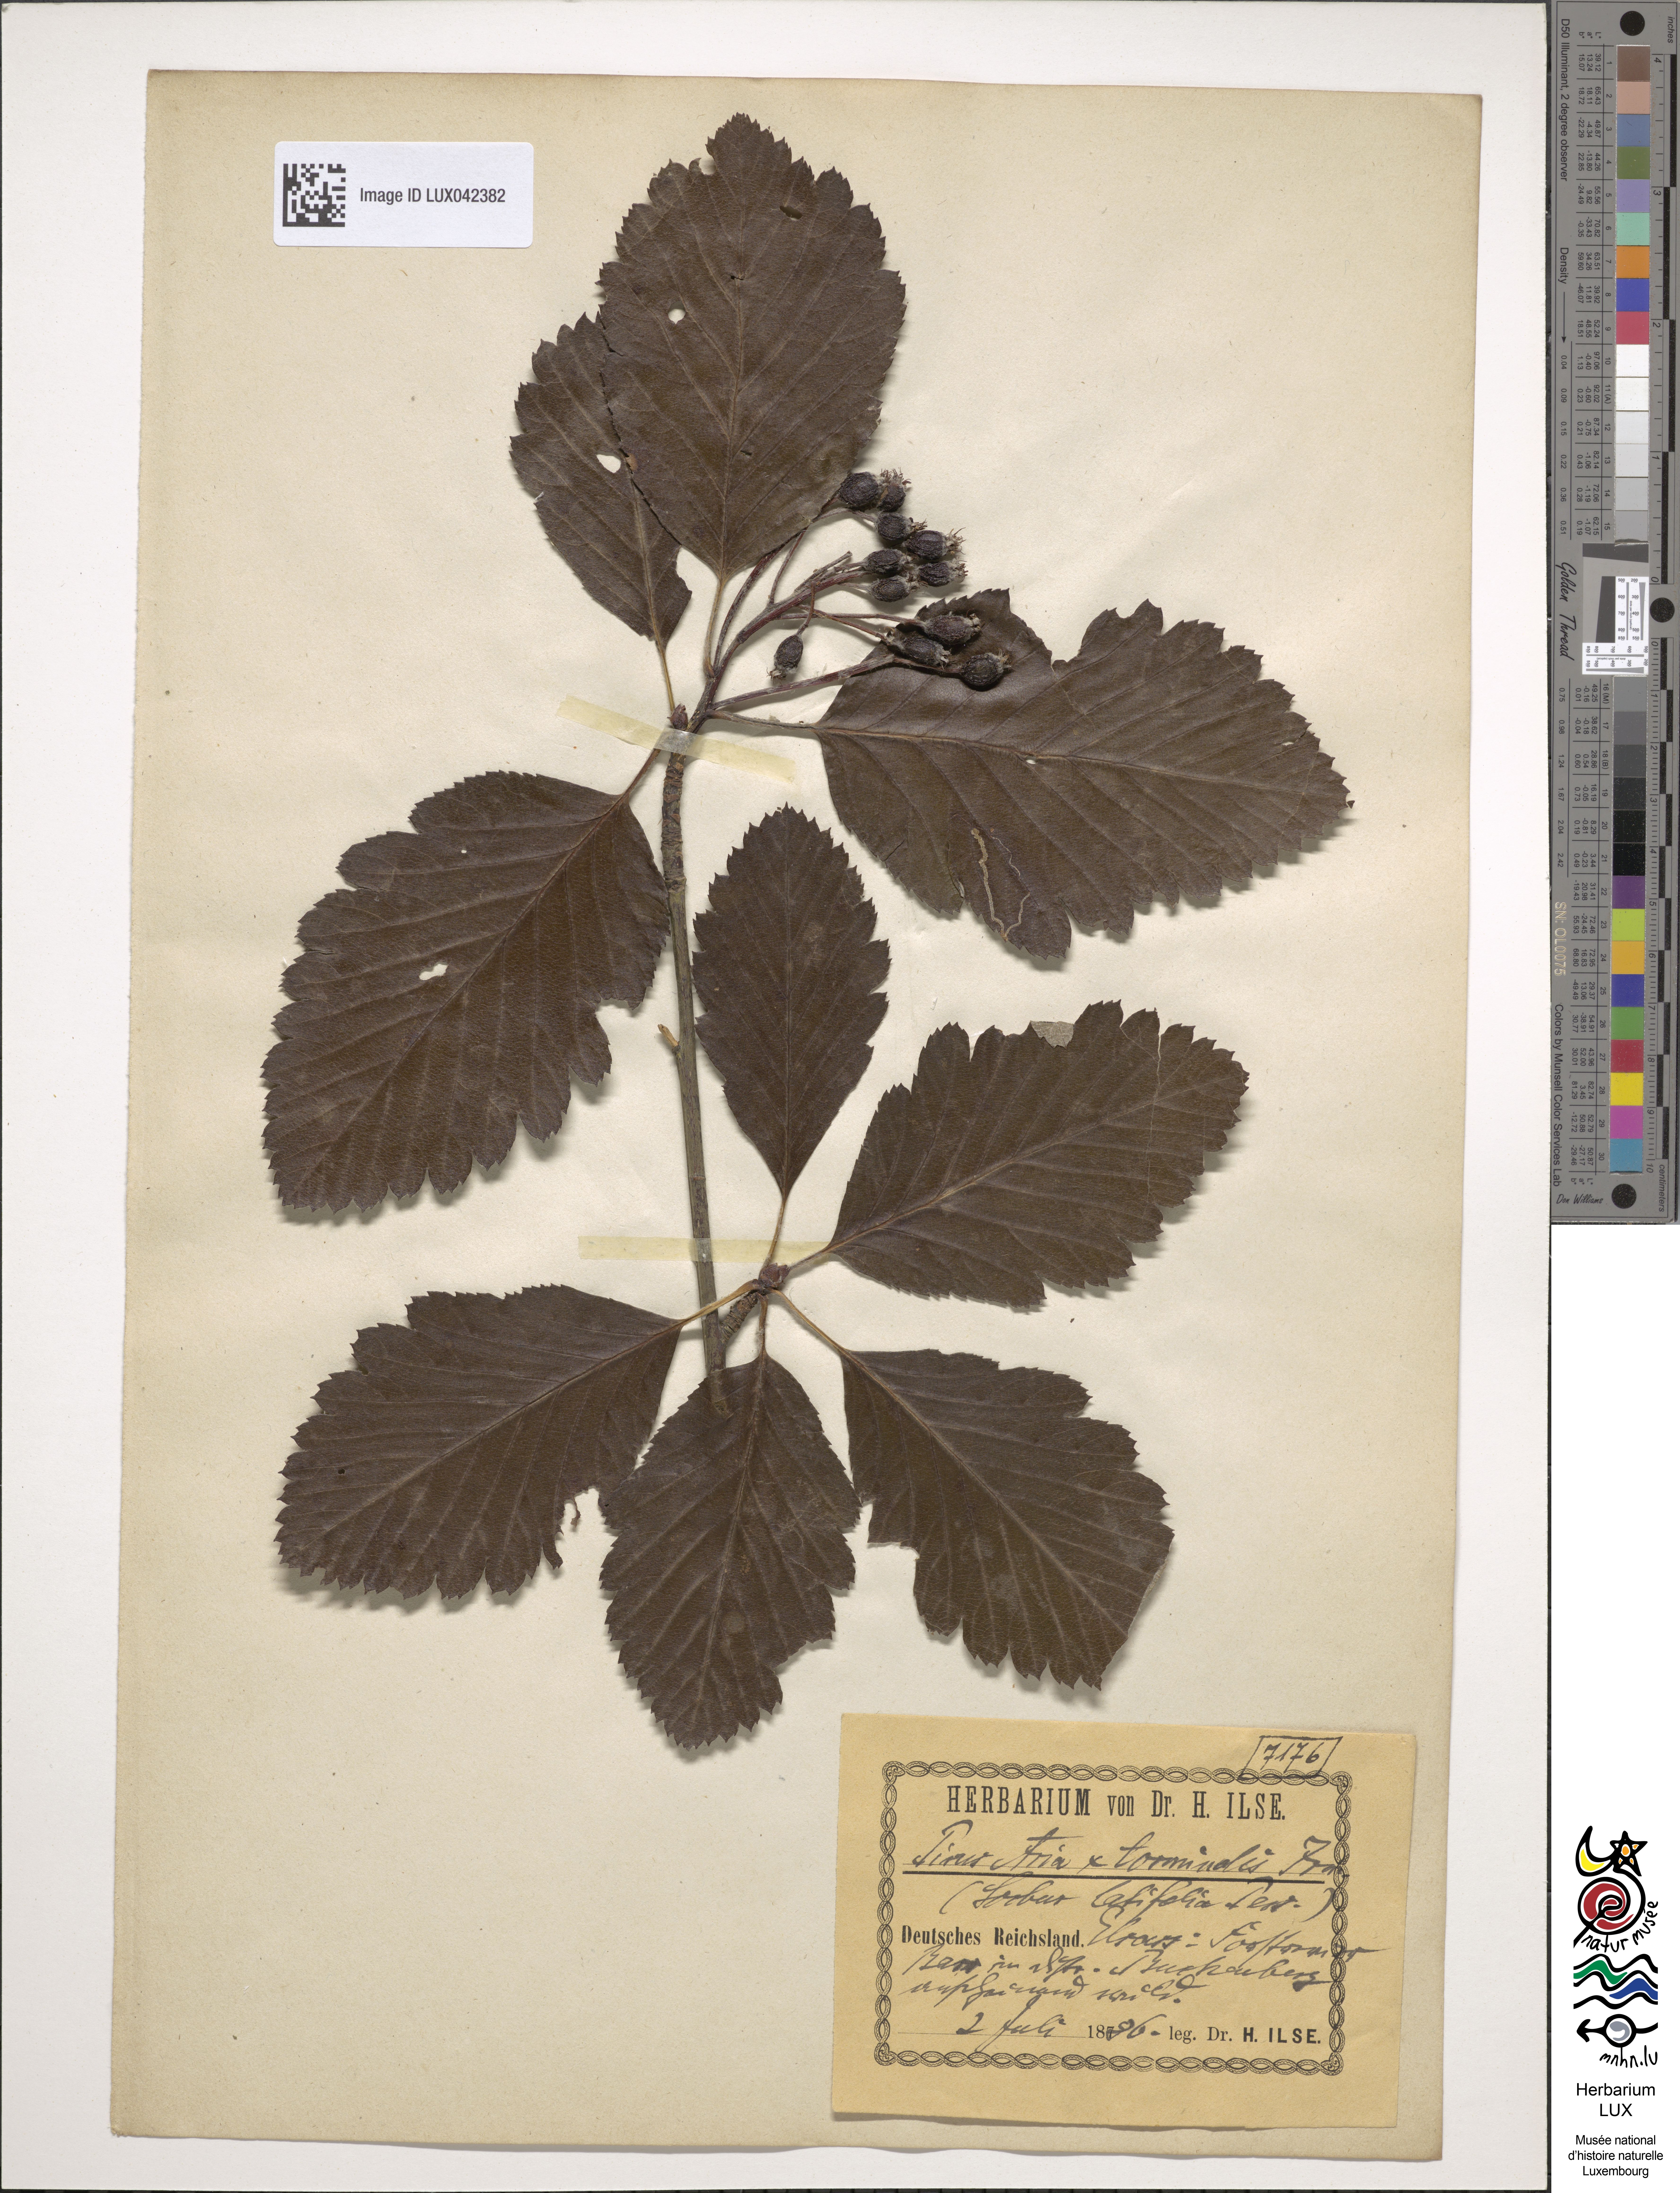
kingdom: Plantae
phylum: Tracheophyta
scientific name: Tracheophyta
